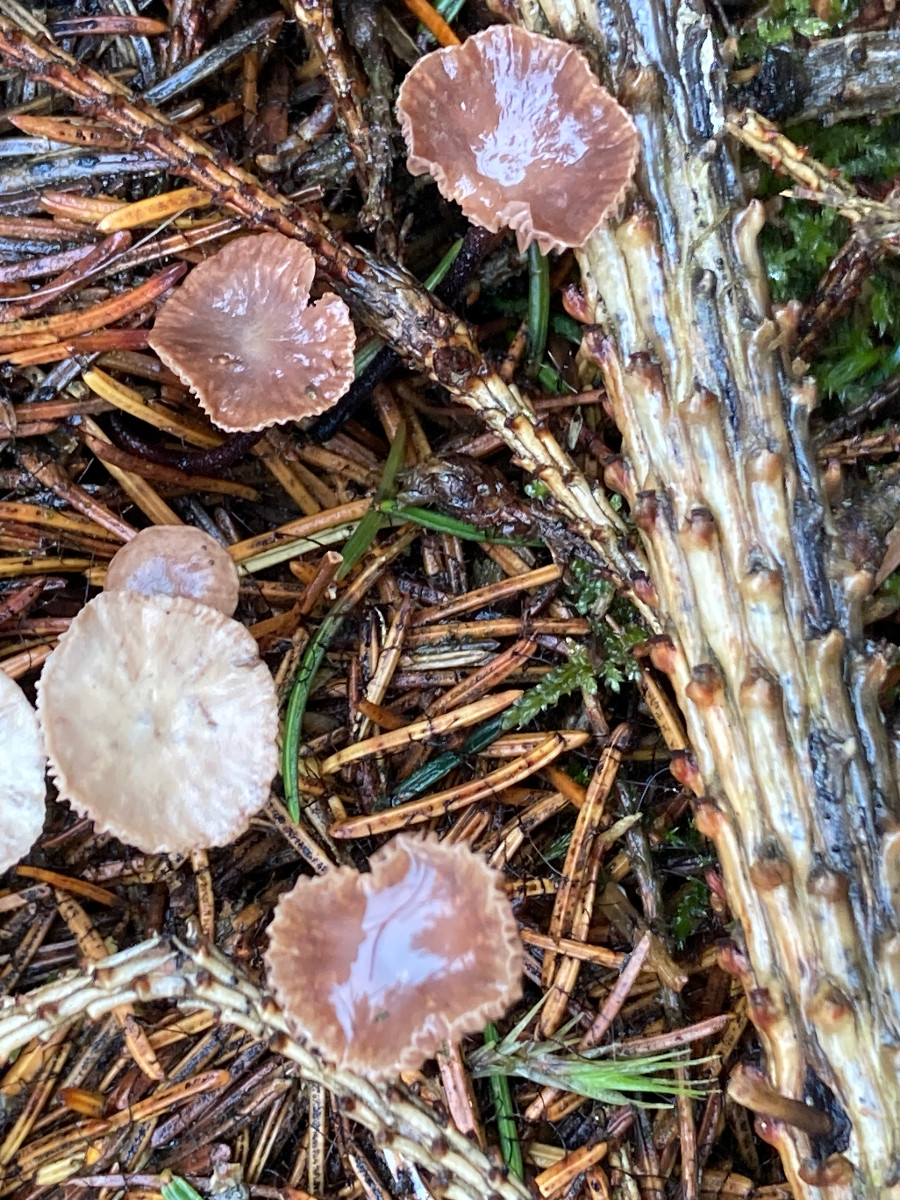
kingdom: Fungi
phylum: Basidiomycota
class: Agaricomycetes
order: Agaricales
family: Omphalotaceae
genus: Paragymnopus
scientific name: Paragymnopus perforans
